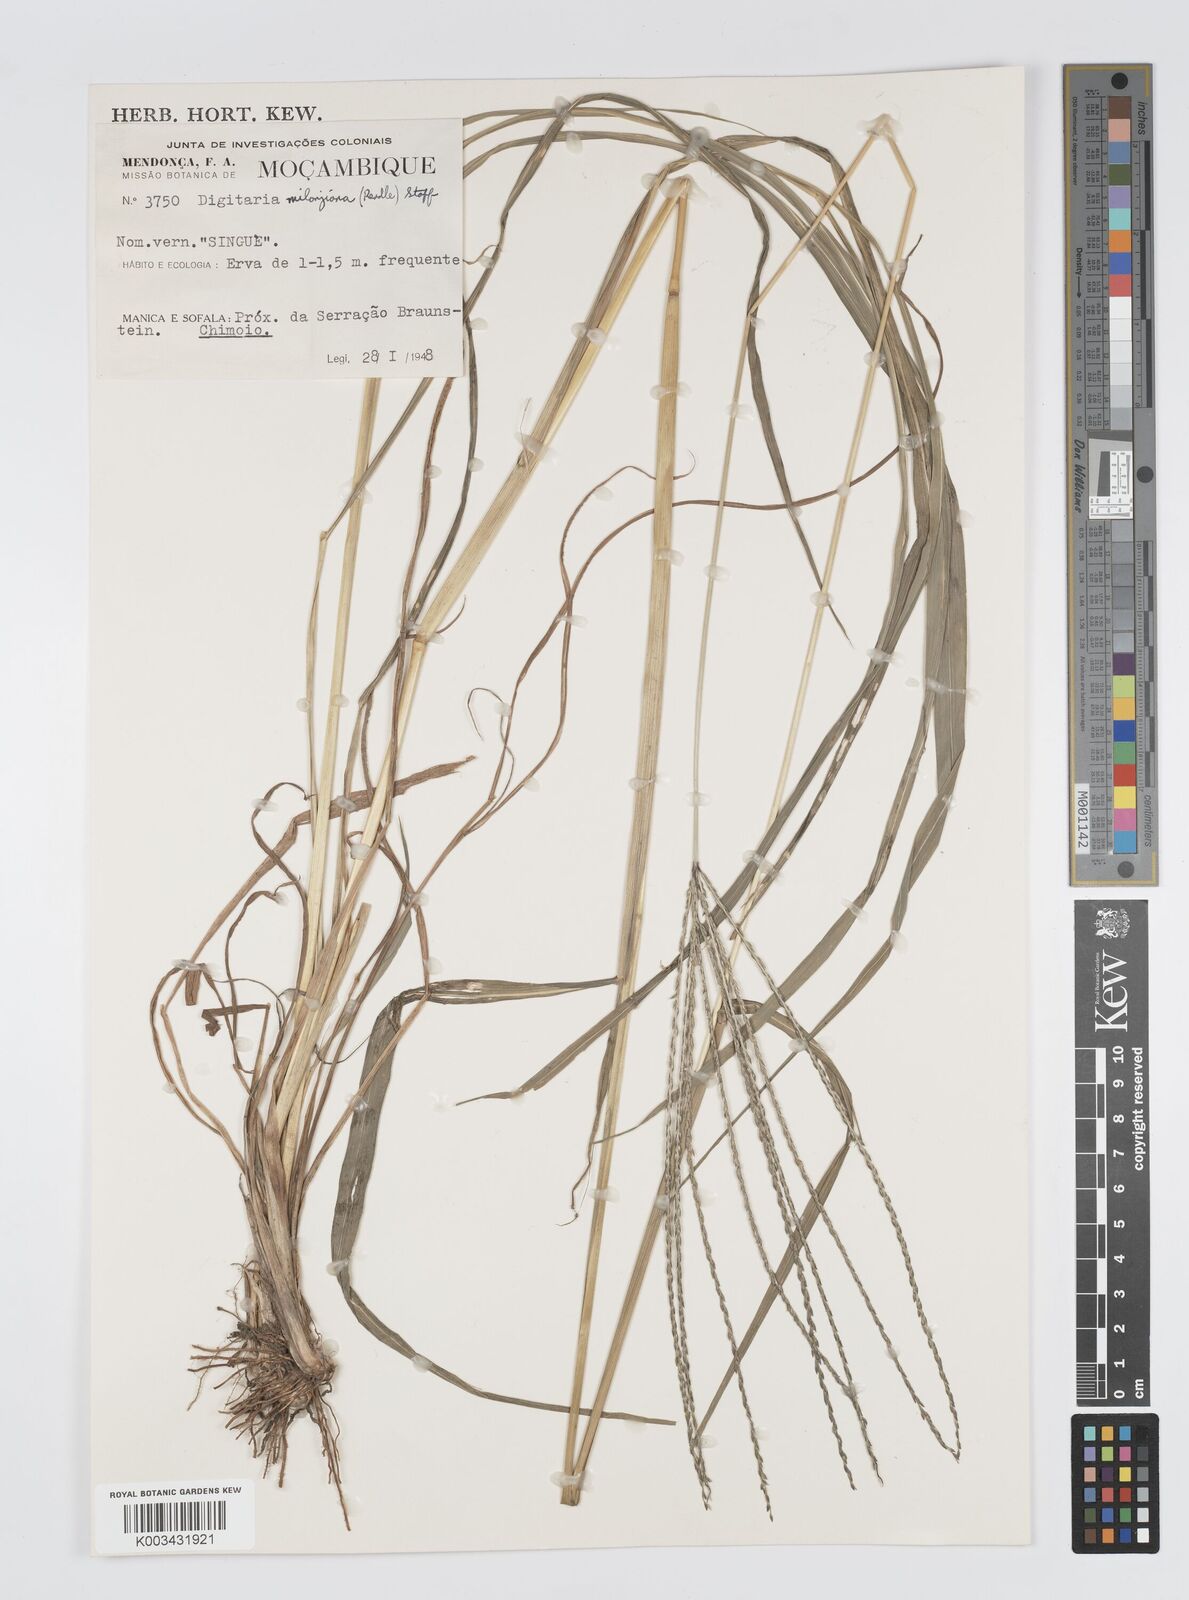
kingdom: Plantae
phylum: Tracheophyta
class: Liliopsida
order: Poales
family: Poaceae
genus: Digitaria
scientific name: Digitaria milanjiana
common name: Madagascar crabgrass
